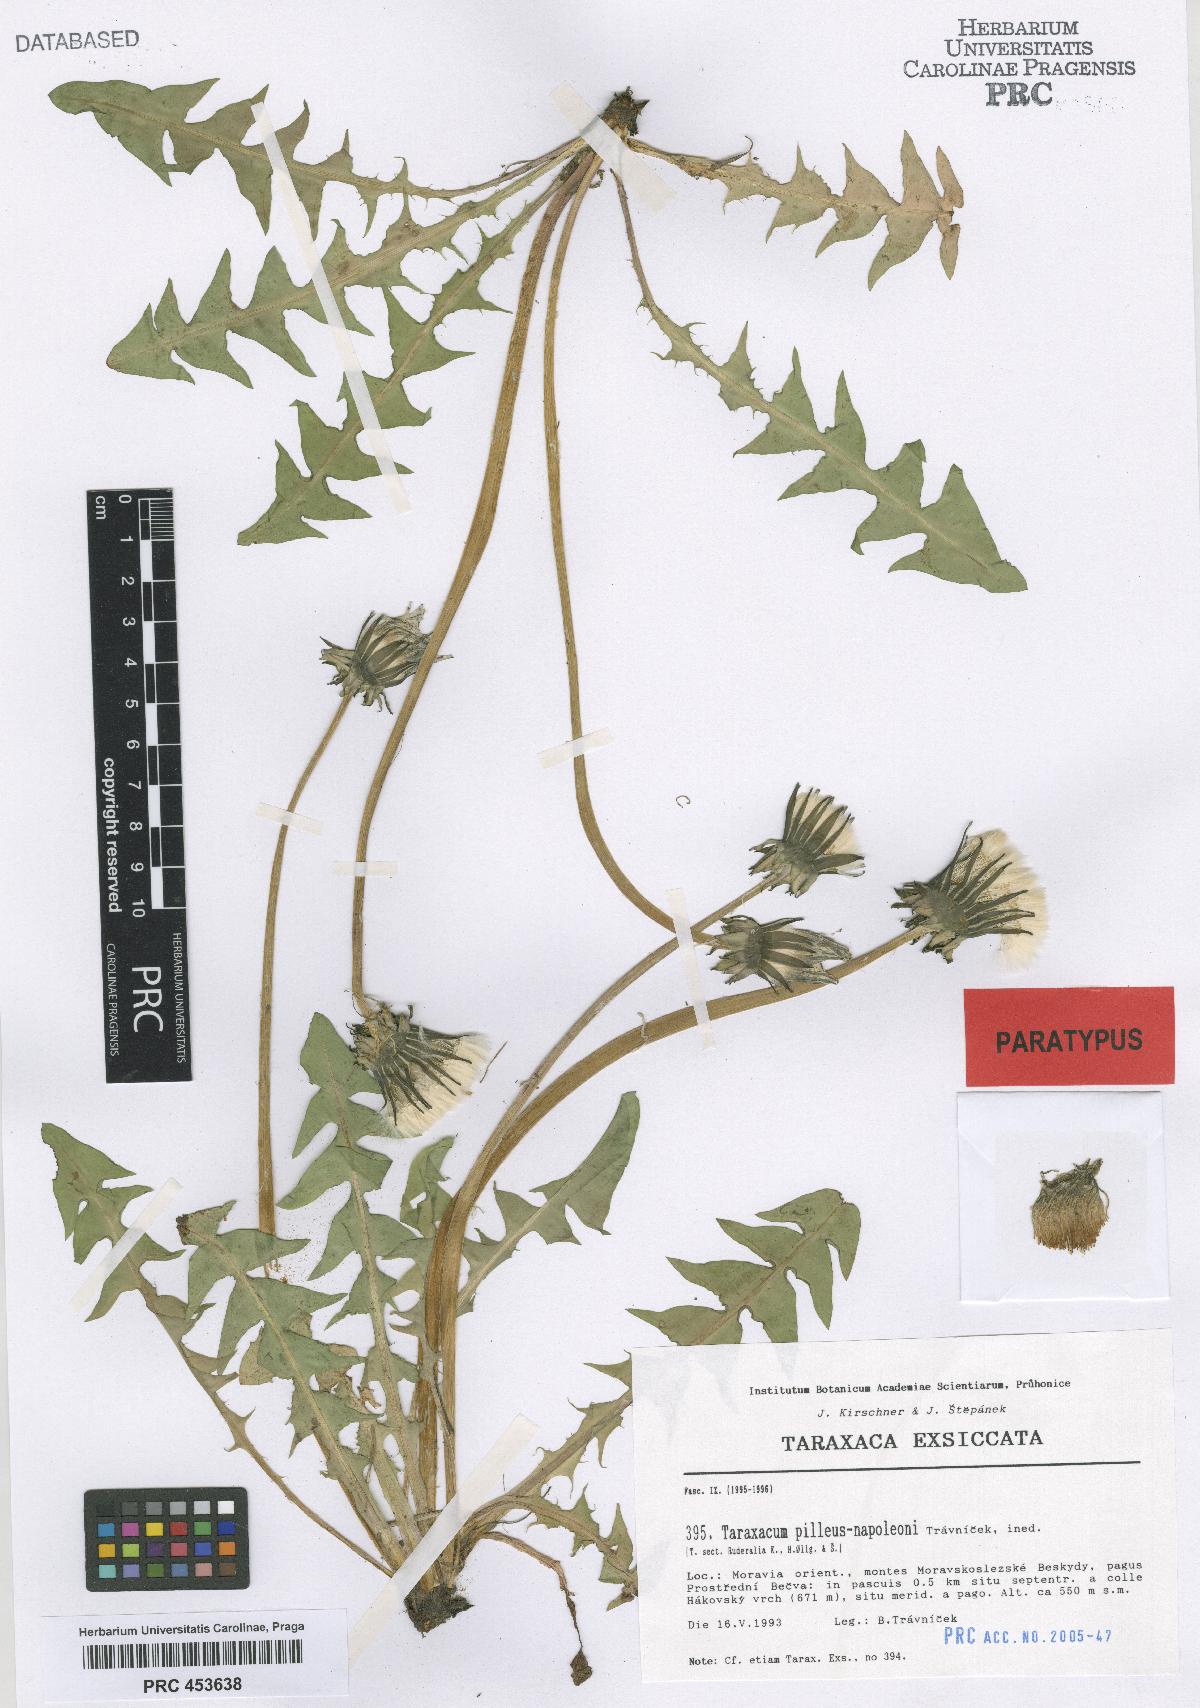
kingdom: Plantae
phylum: Tracheophyta
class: Magnoliopsida
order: Asterales
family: Asteraceae
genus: Taraxacum
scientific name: Taraxacum crassum
